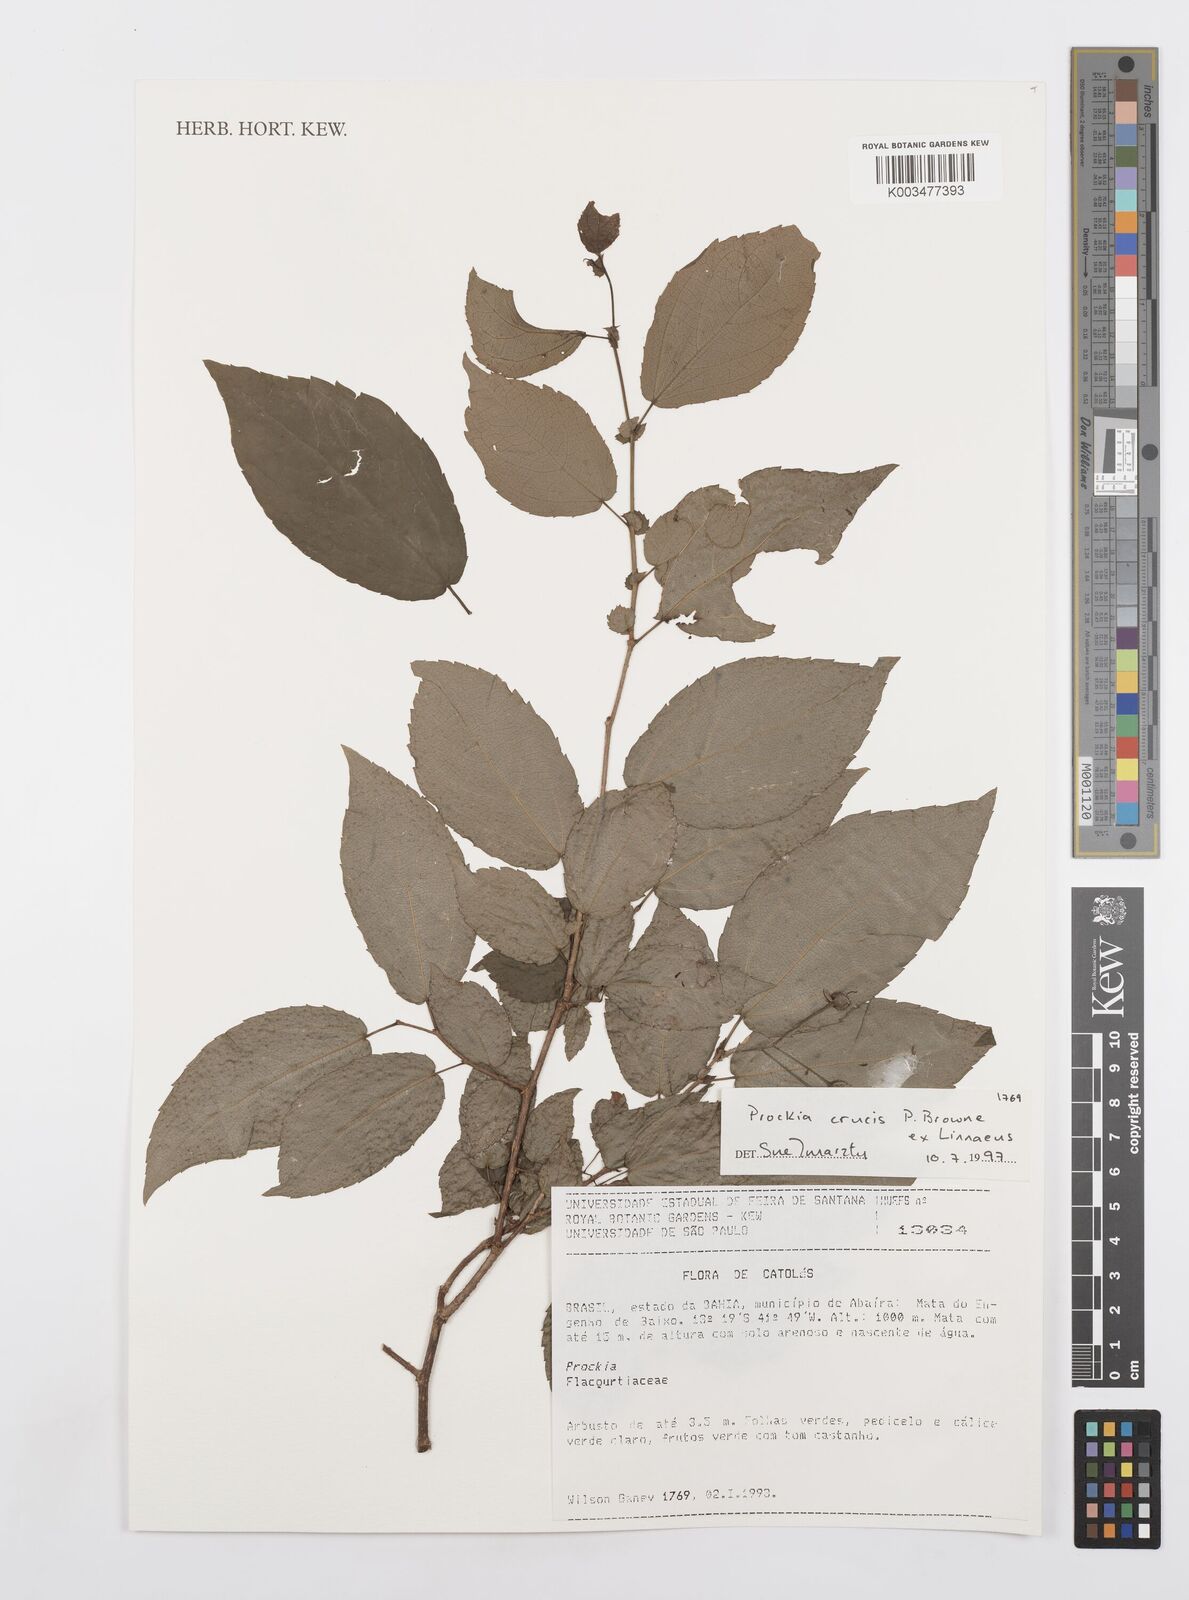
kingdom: Plantae
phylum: Tracheophyta
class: Magnoliopsida
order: Malpighiales
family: Salicaceae
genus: Prockia
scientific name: Prockia crucis
